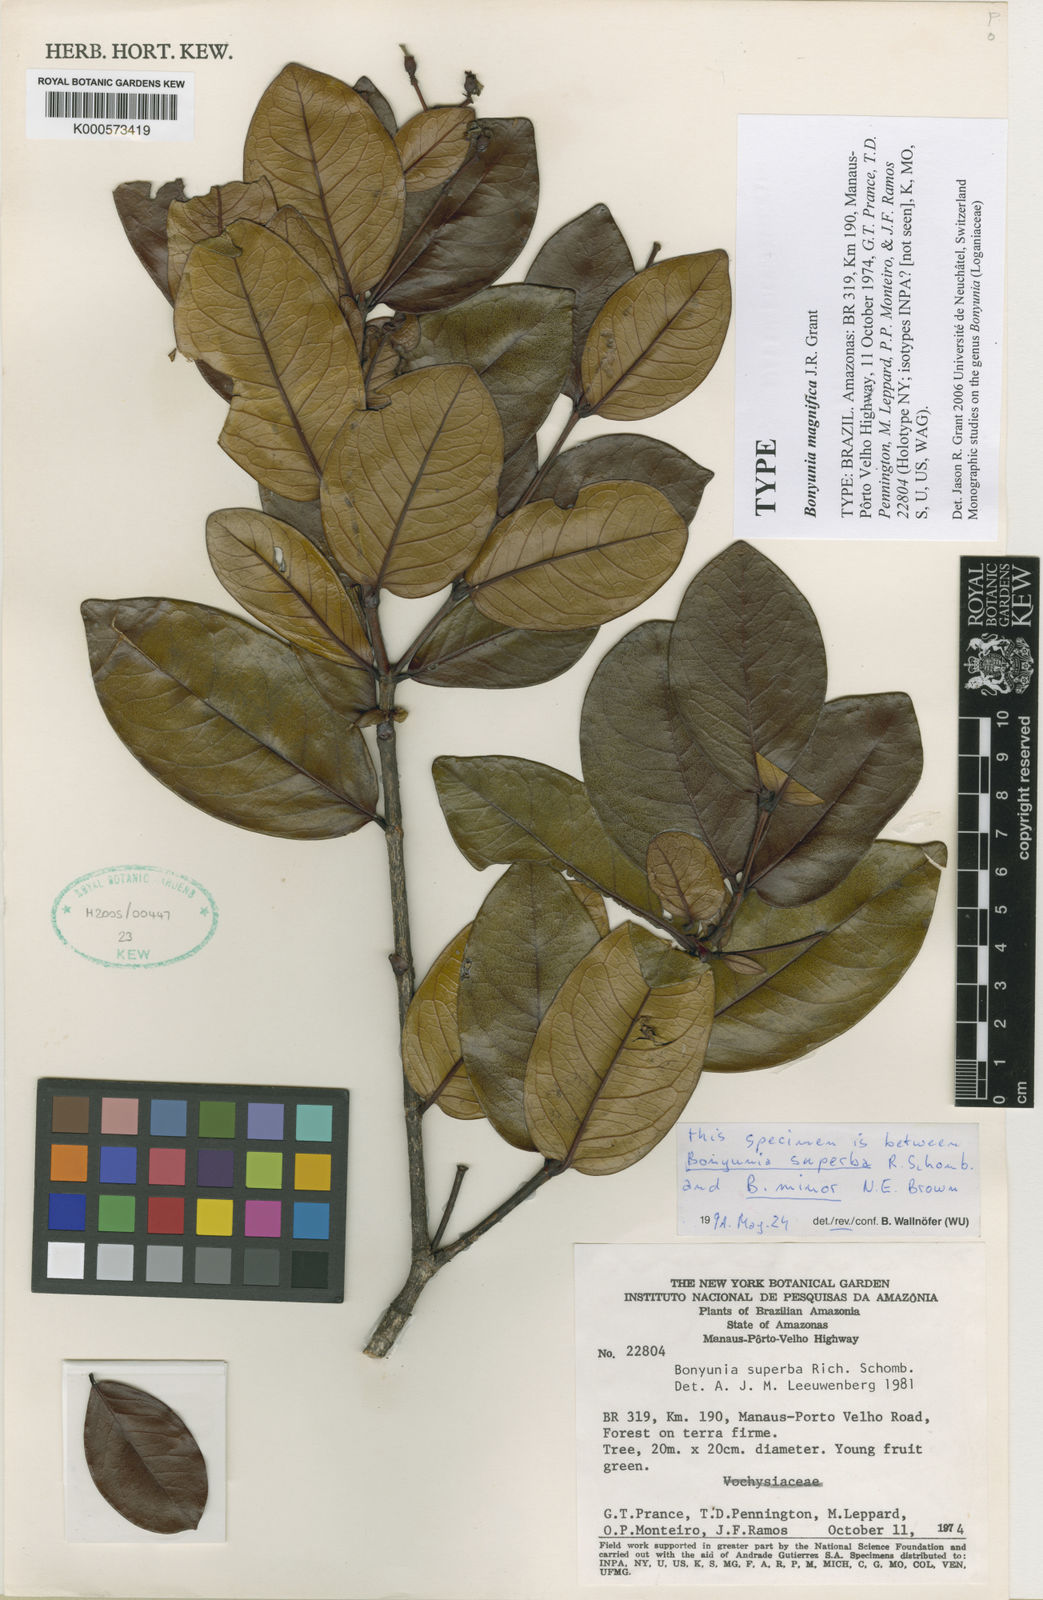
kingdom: Plantae
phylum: Tracheophyta
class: Magnoliopsida
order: Gentianales
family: Loganiaceae
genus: Bonyunia
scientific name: Bonyunia magnifica
